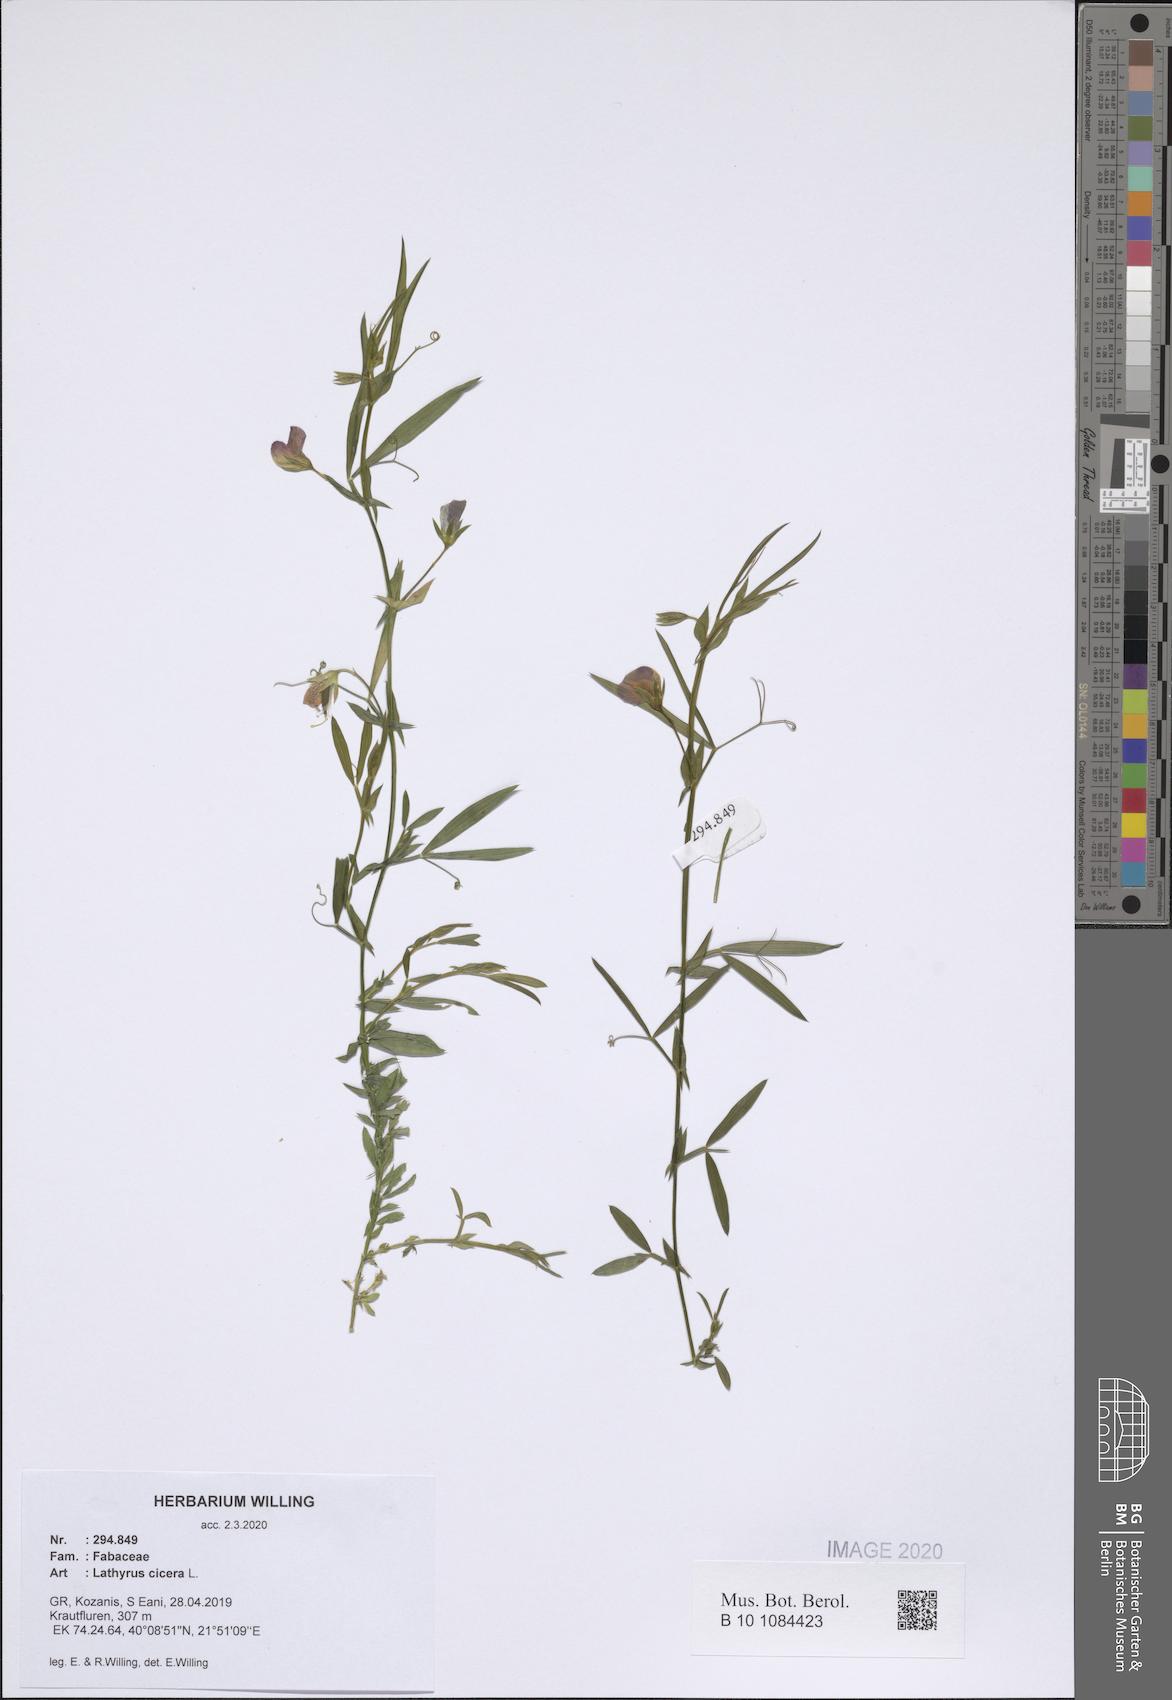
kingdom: Plantae
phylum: Tracheophyta
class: Magnoliopsida
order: Fabales
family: Fabaceae
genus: Lathyrus
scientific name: Lathyrus cicera
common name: Red vetchling
